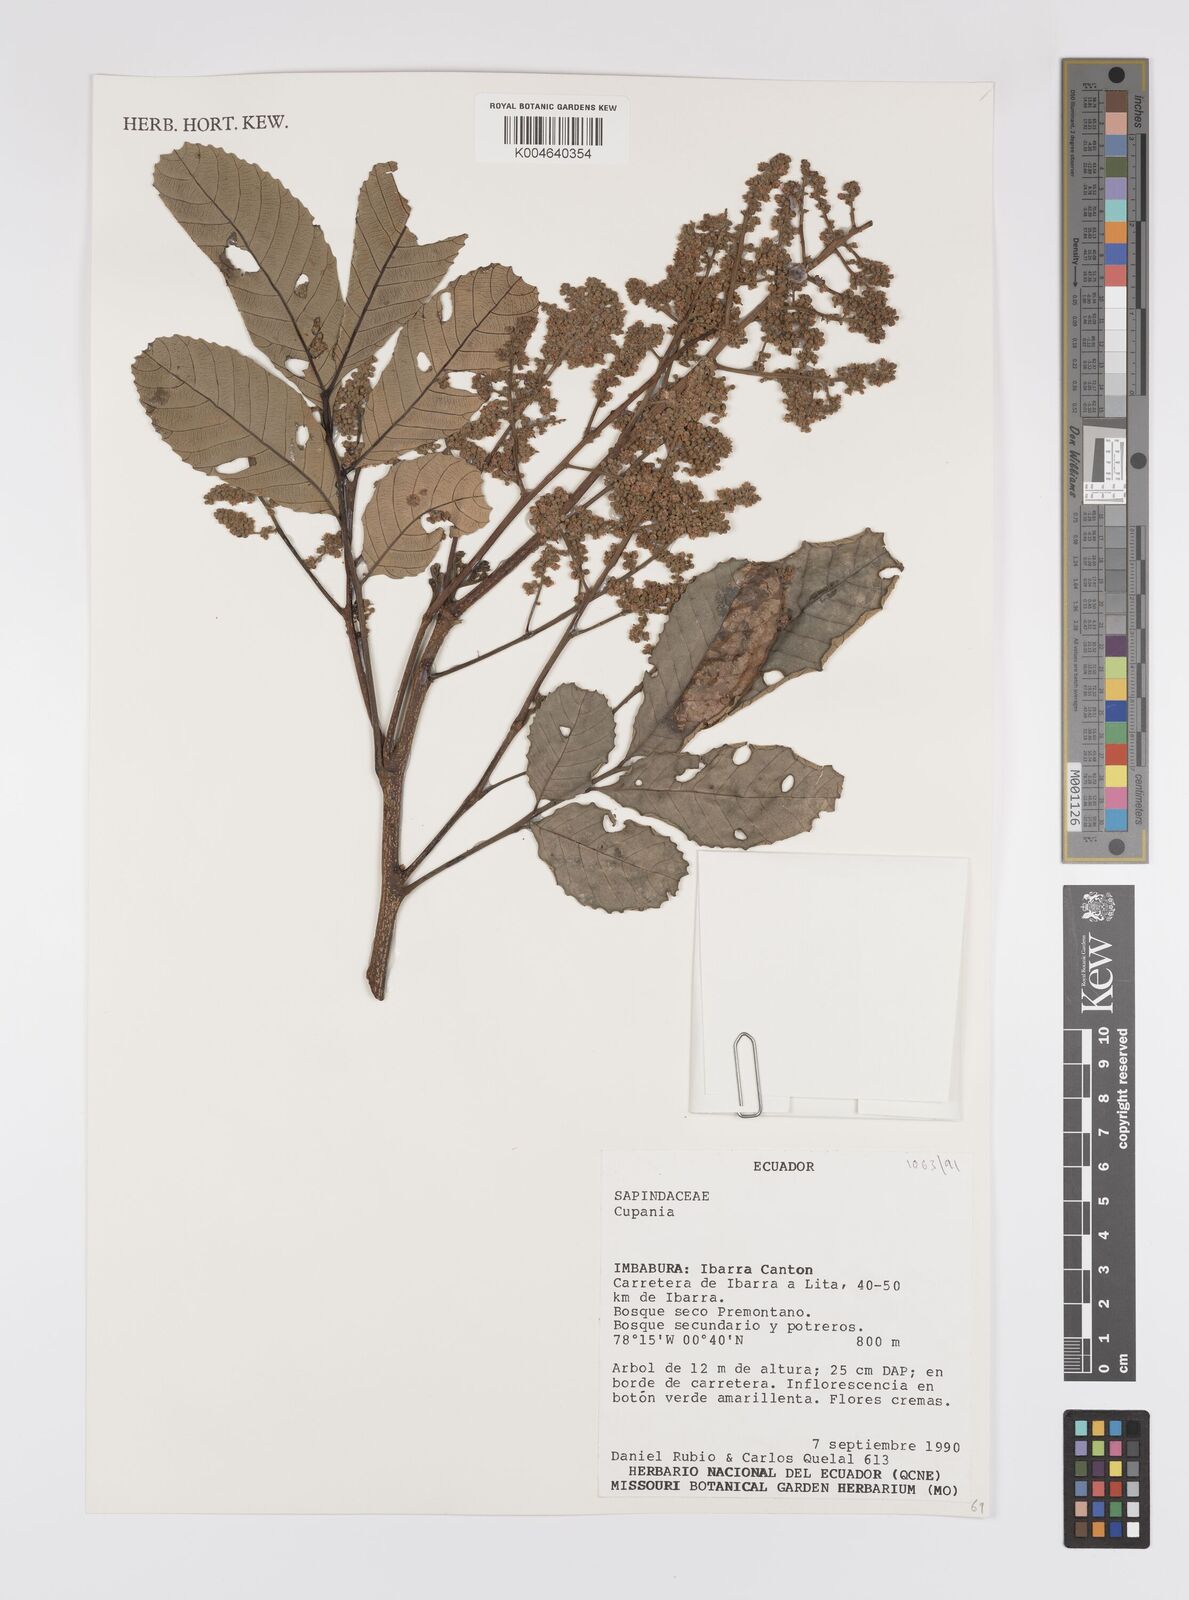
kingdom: Plantae
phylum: Tracheophyta
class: Magnoliopsida
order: Sapindales
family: Sapindaceae
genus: Cupania
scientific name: Cupania
